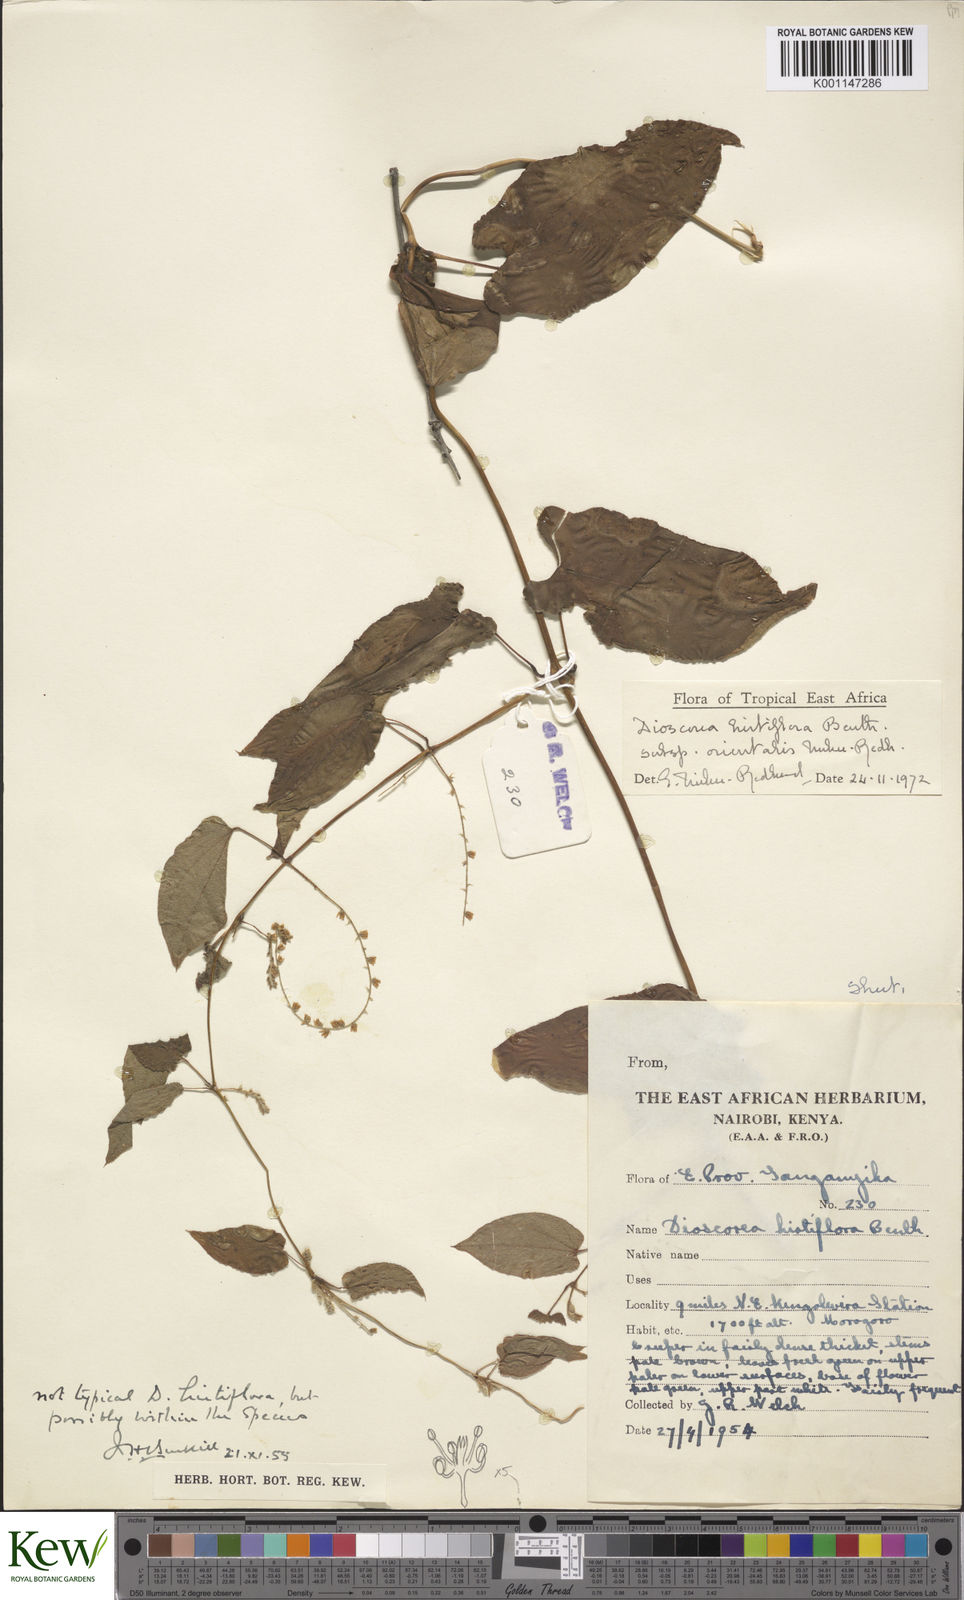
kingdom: Plantae
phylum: Tracheophyta
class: Liliopsida
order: Dioscoreales
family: Dioscoreaceae
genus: Dioscorea
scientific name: Dioscorea hirtiflora
